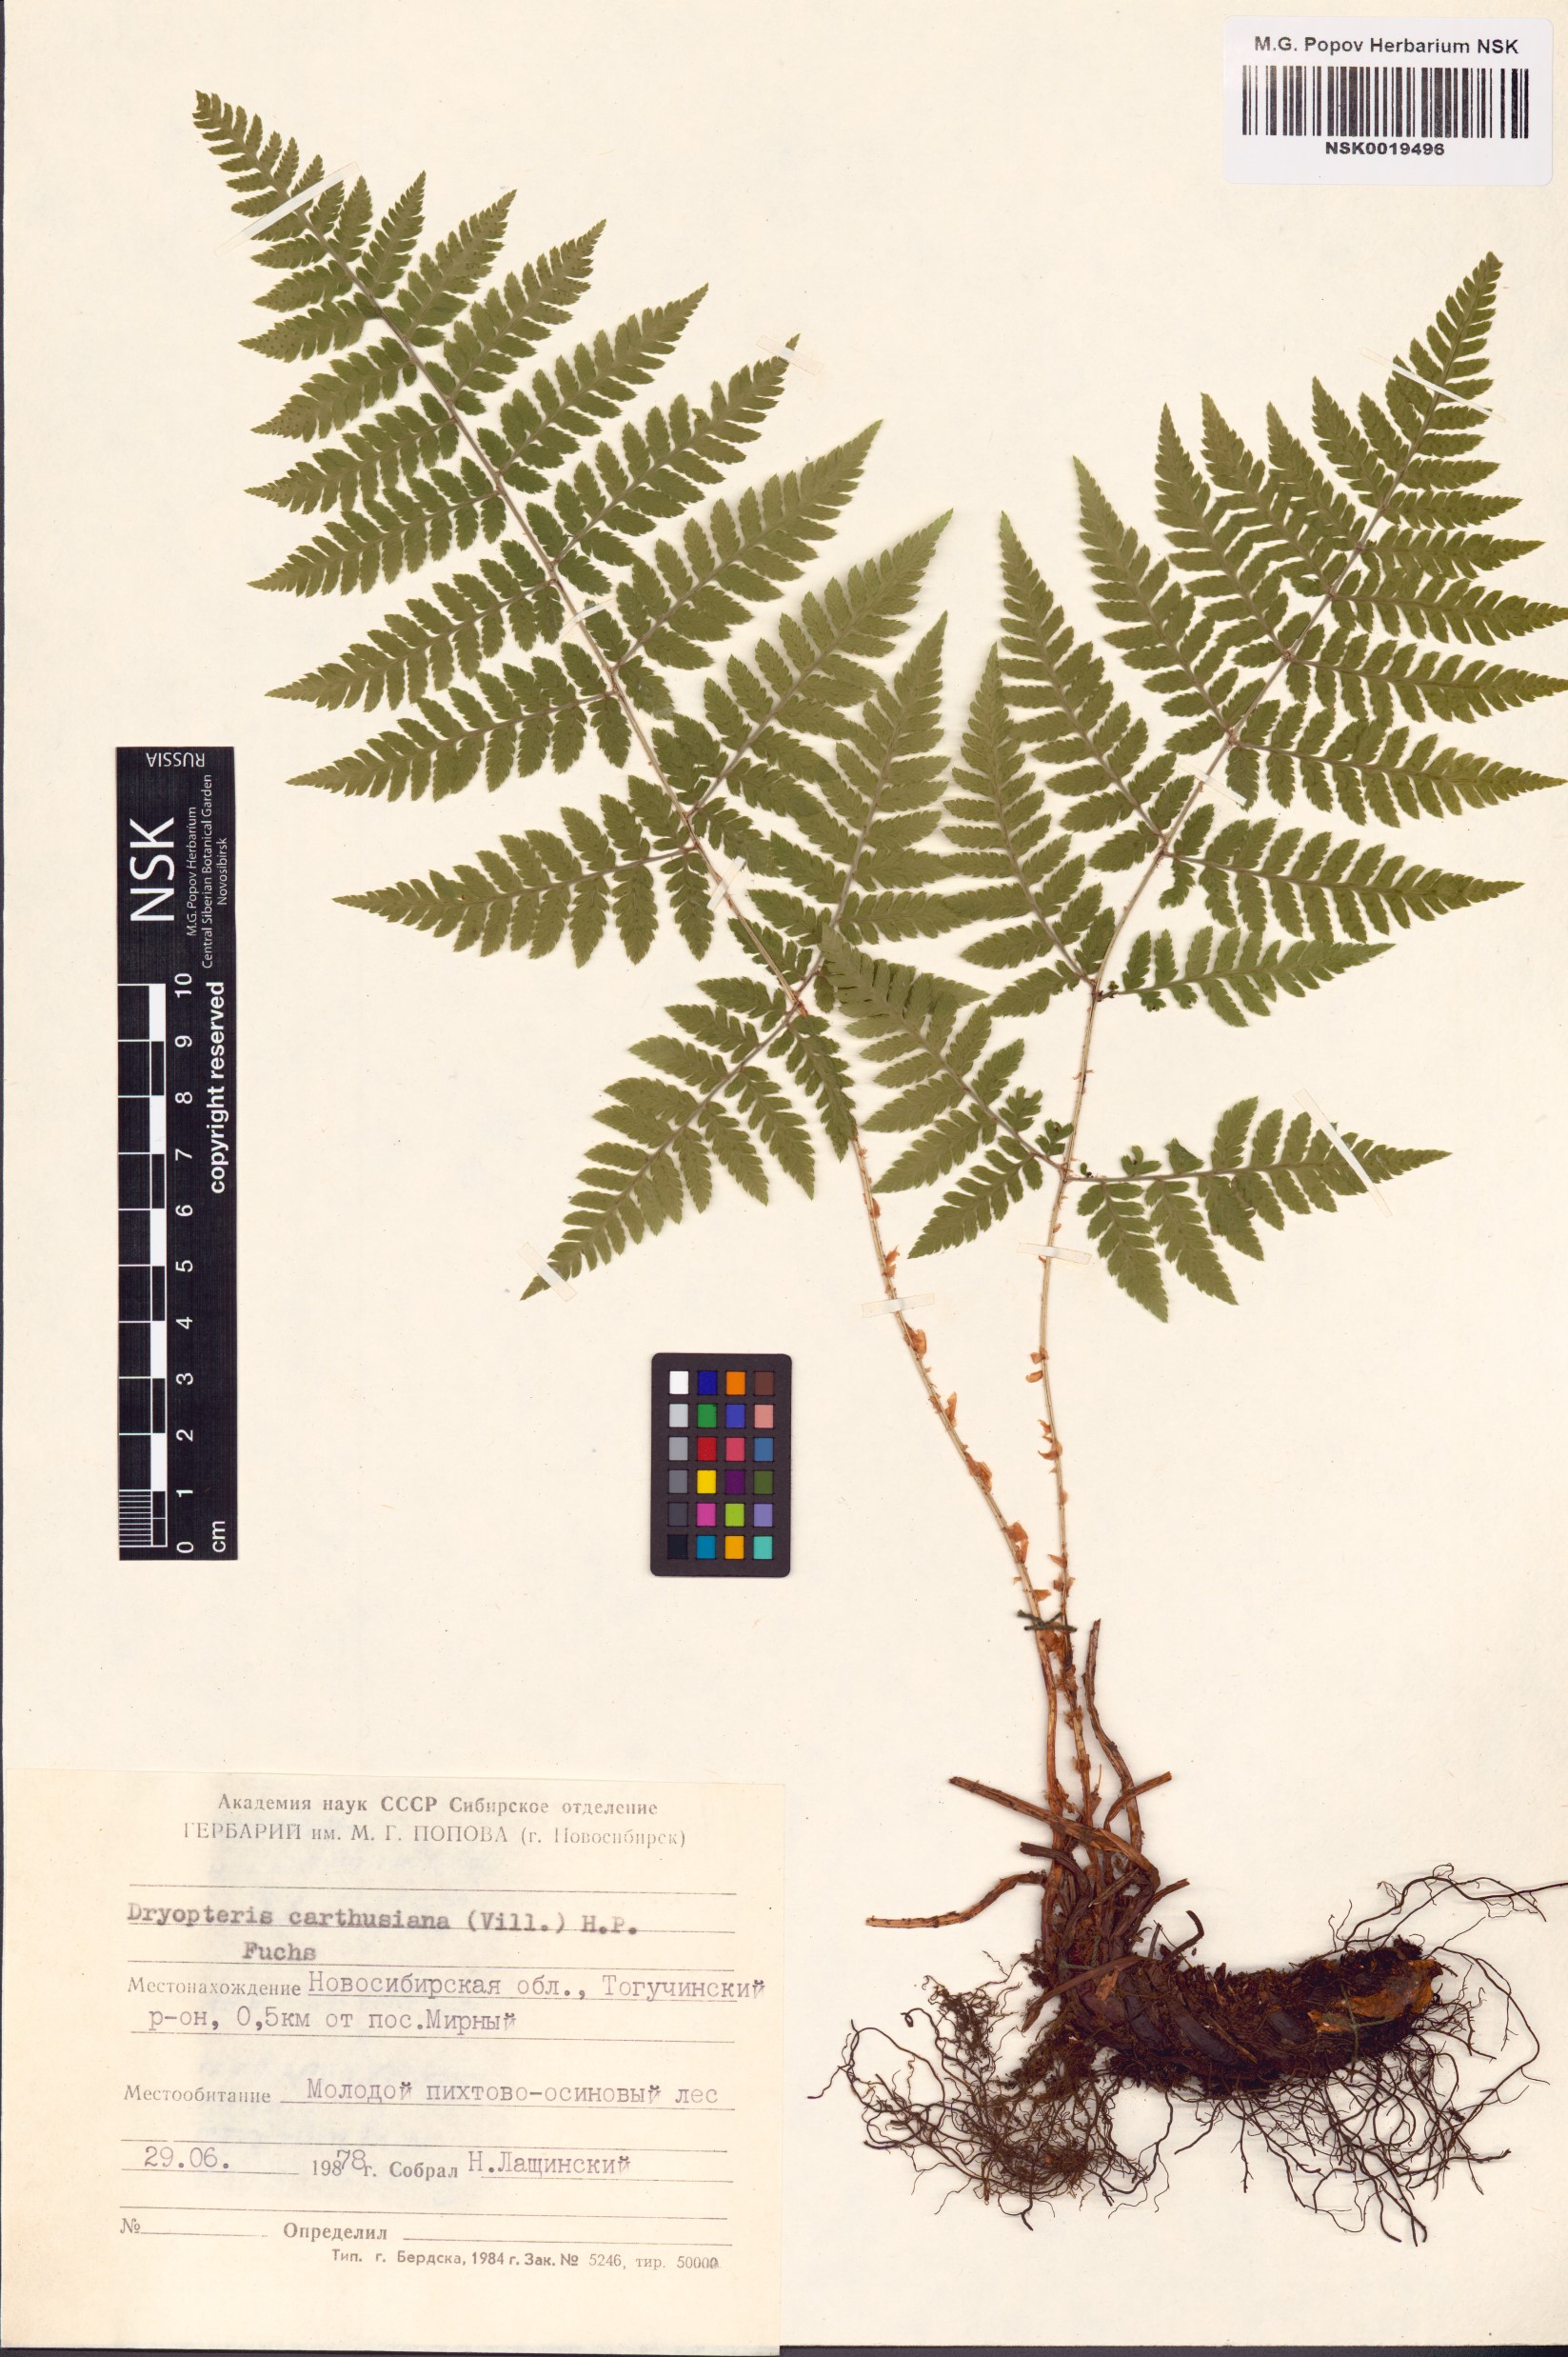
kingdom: Plantae
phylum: Tracheophyta
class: Polypodiopsida
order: Polypodiales
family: Dryopteridaceae
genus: Dryopteris
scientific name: Dryopteris carthusiana
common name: Narrow buckler-fern
